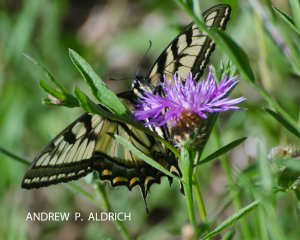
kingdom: Animalia
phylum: Arthropoda
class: Insecta
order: Lepidoptera
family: Papilionidae
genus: Pterourus
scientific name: Pterourus canadensis
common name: Canadian Tiger Swallowtail
